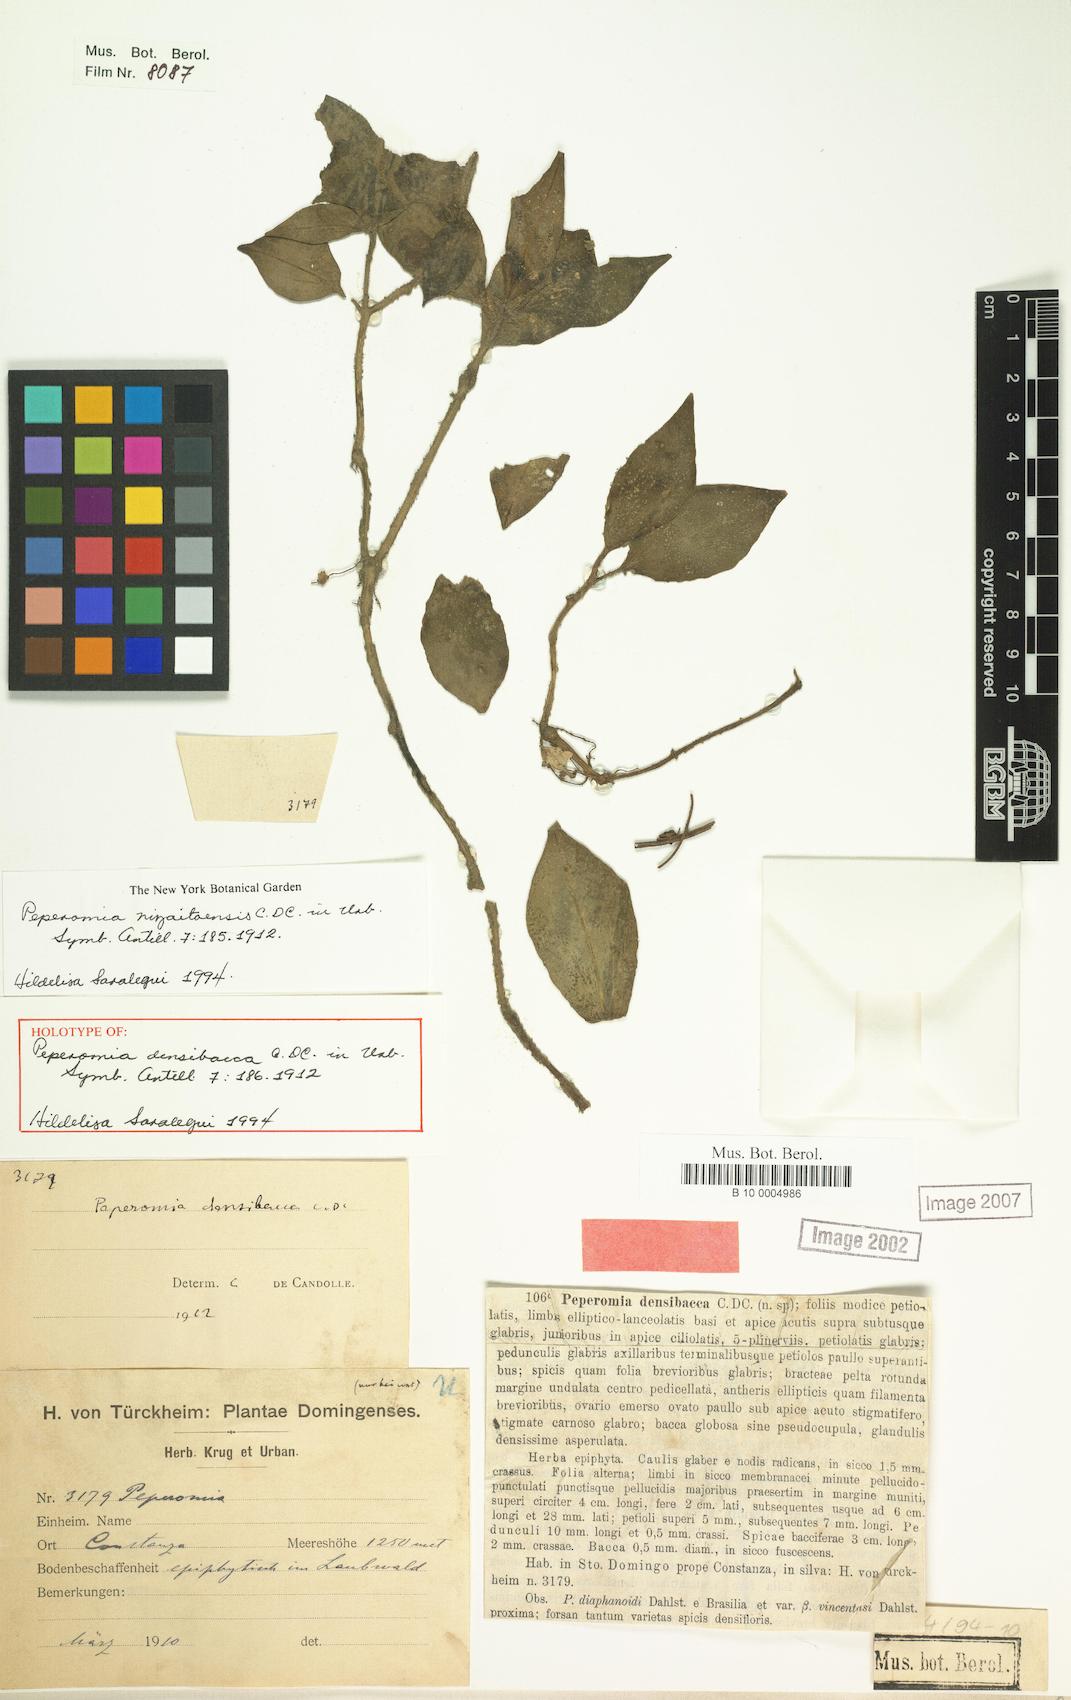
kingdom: Plantae
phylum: Tracheophyta
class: Magnoliopsida
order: Piperales
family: Piperaceae
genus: Peperomia
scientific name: Peperomia nizaitoensis
